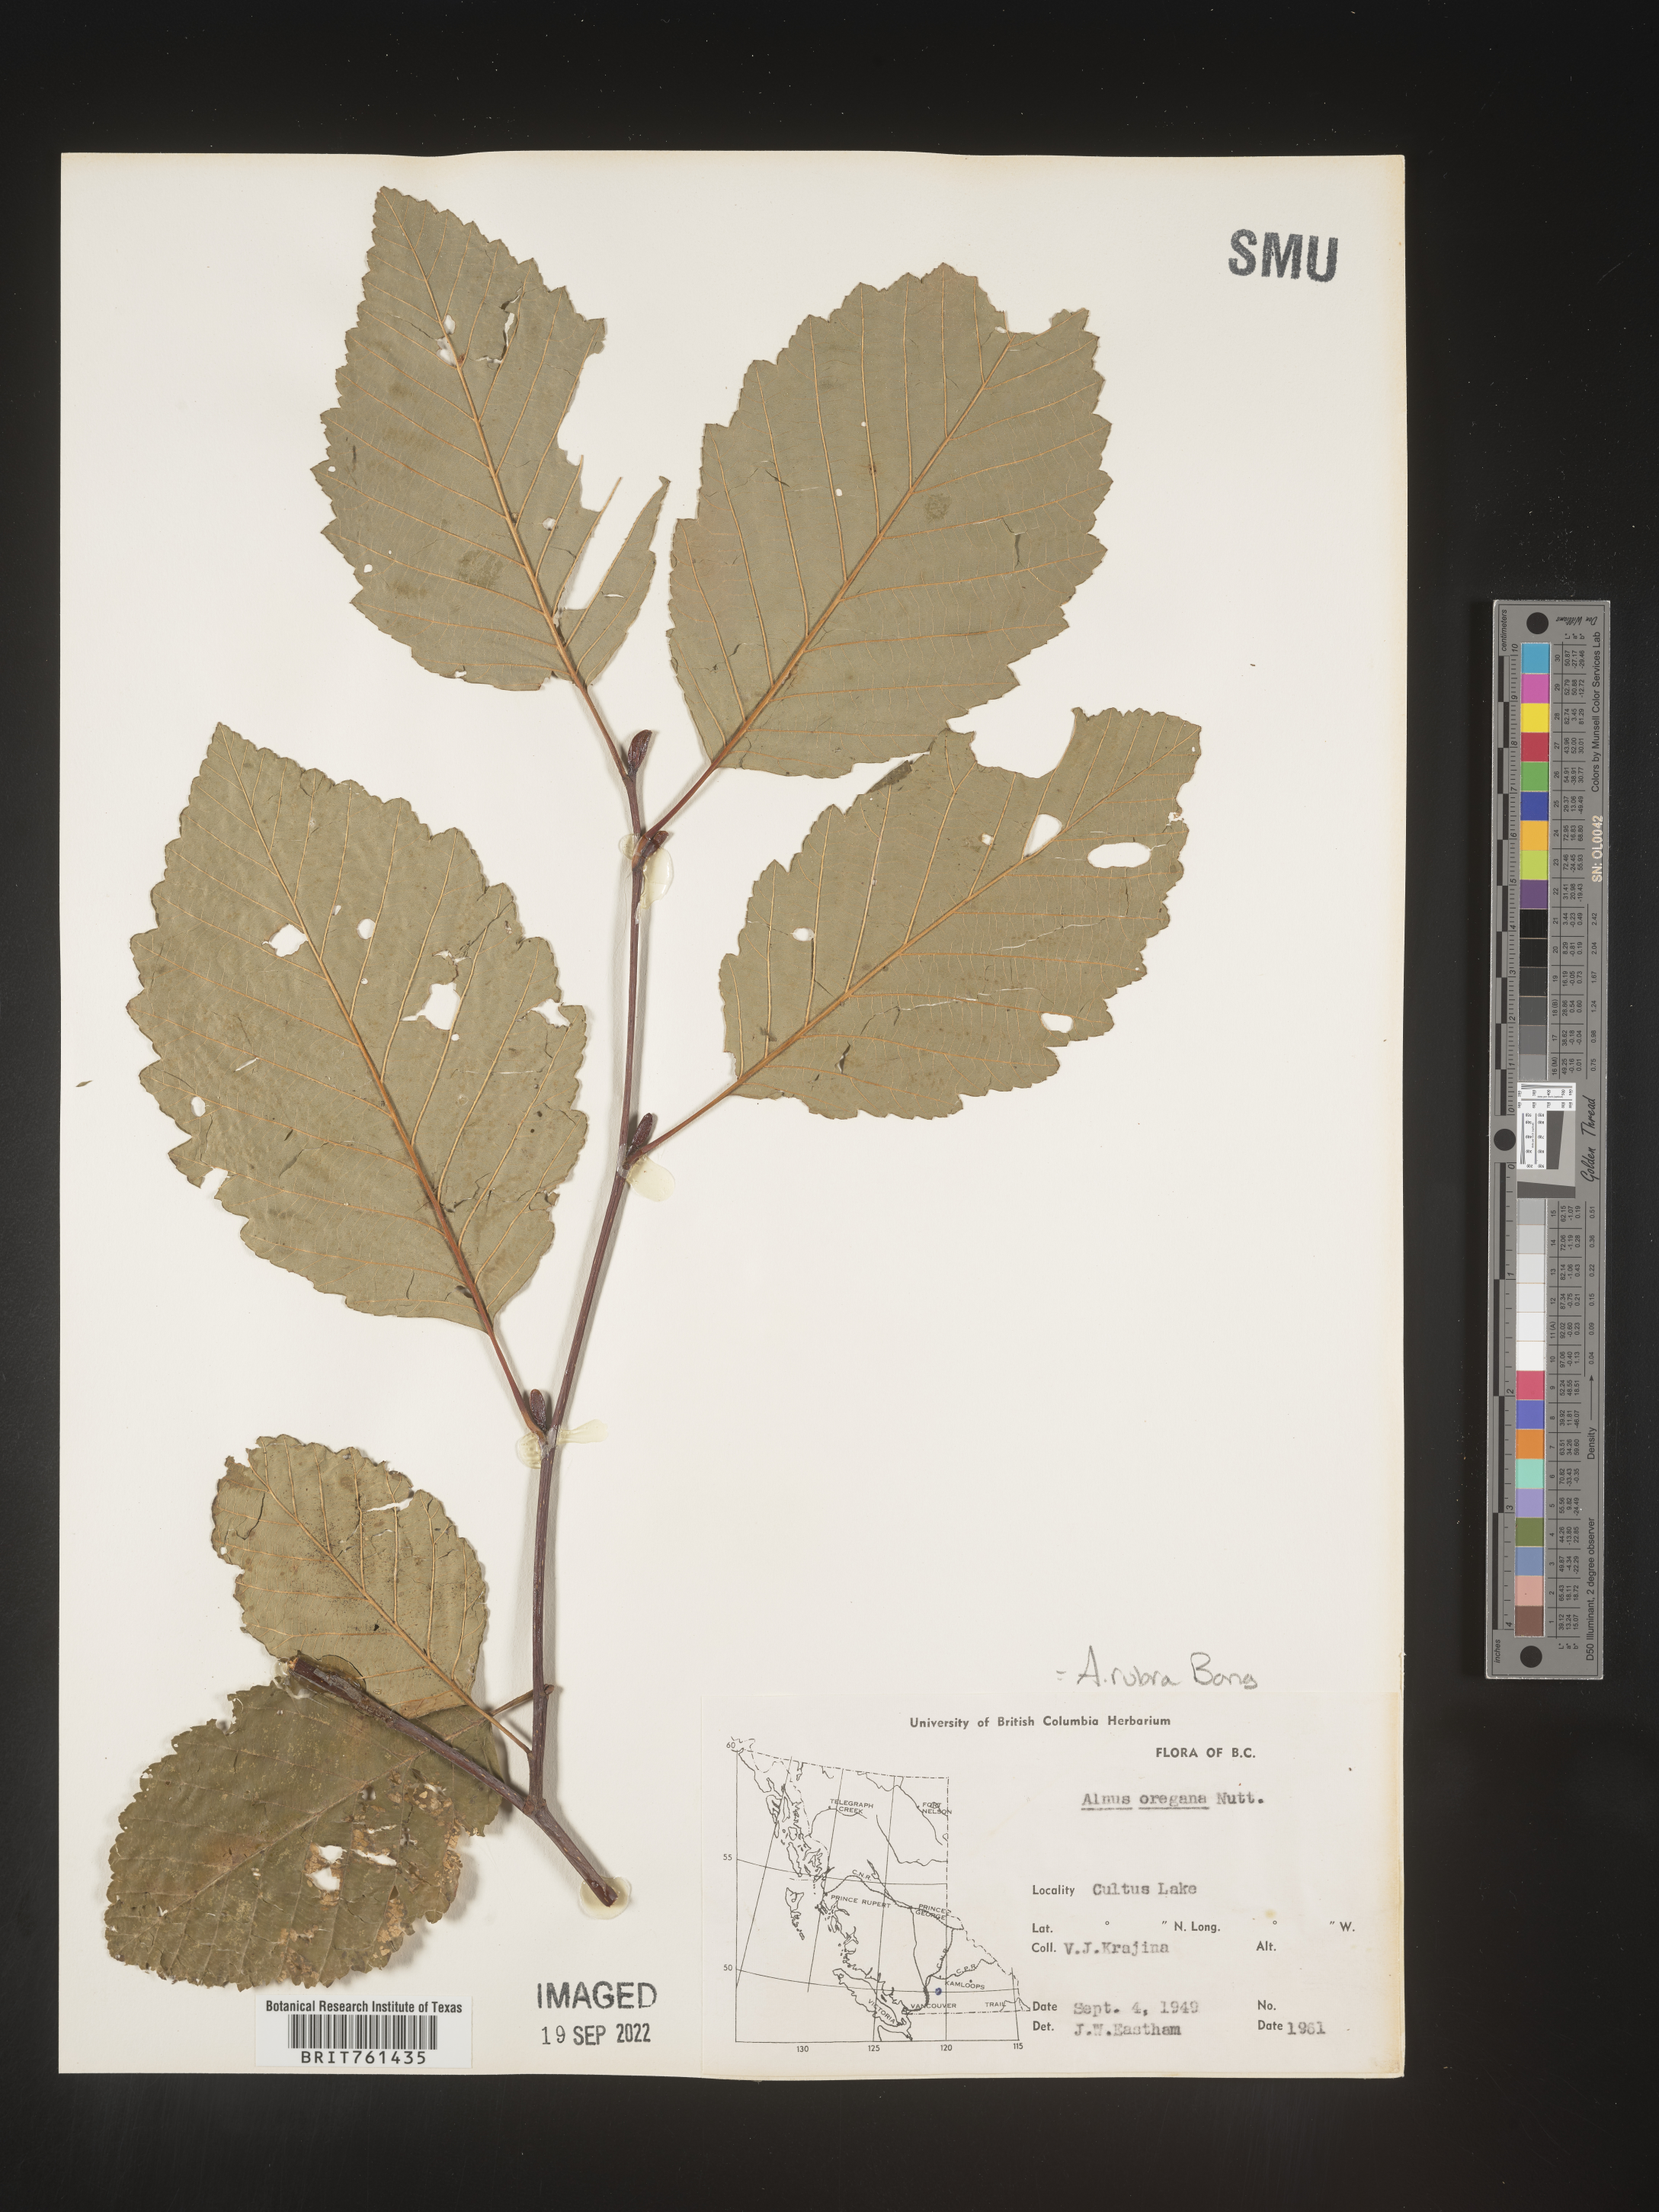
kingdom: Plantae
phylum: Tracheophyta
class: Magnoliopsida
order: Fagales
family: Betulaceae
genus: Alnus
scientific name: Alnus rubra
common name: Red alder
